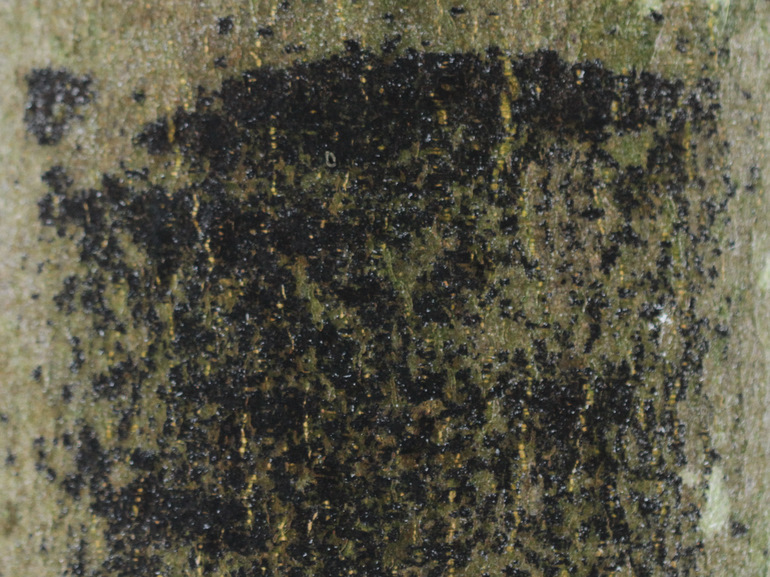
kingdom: Fungi
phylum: Ascomycota
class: Leotiomycetes
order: Rhytismatales
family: Ascodichaenaceae
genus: Ascodichaena
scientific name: Ascodichaena rugosa
